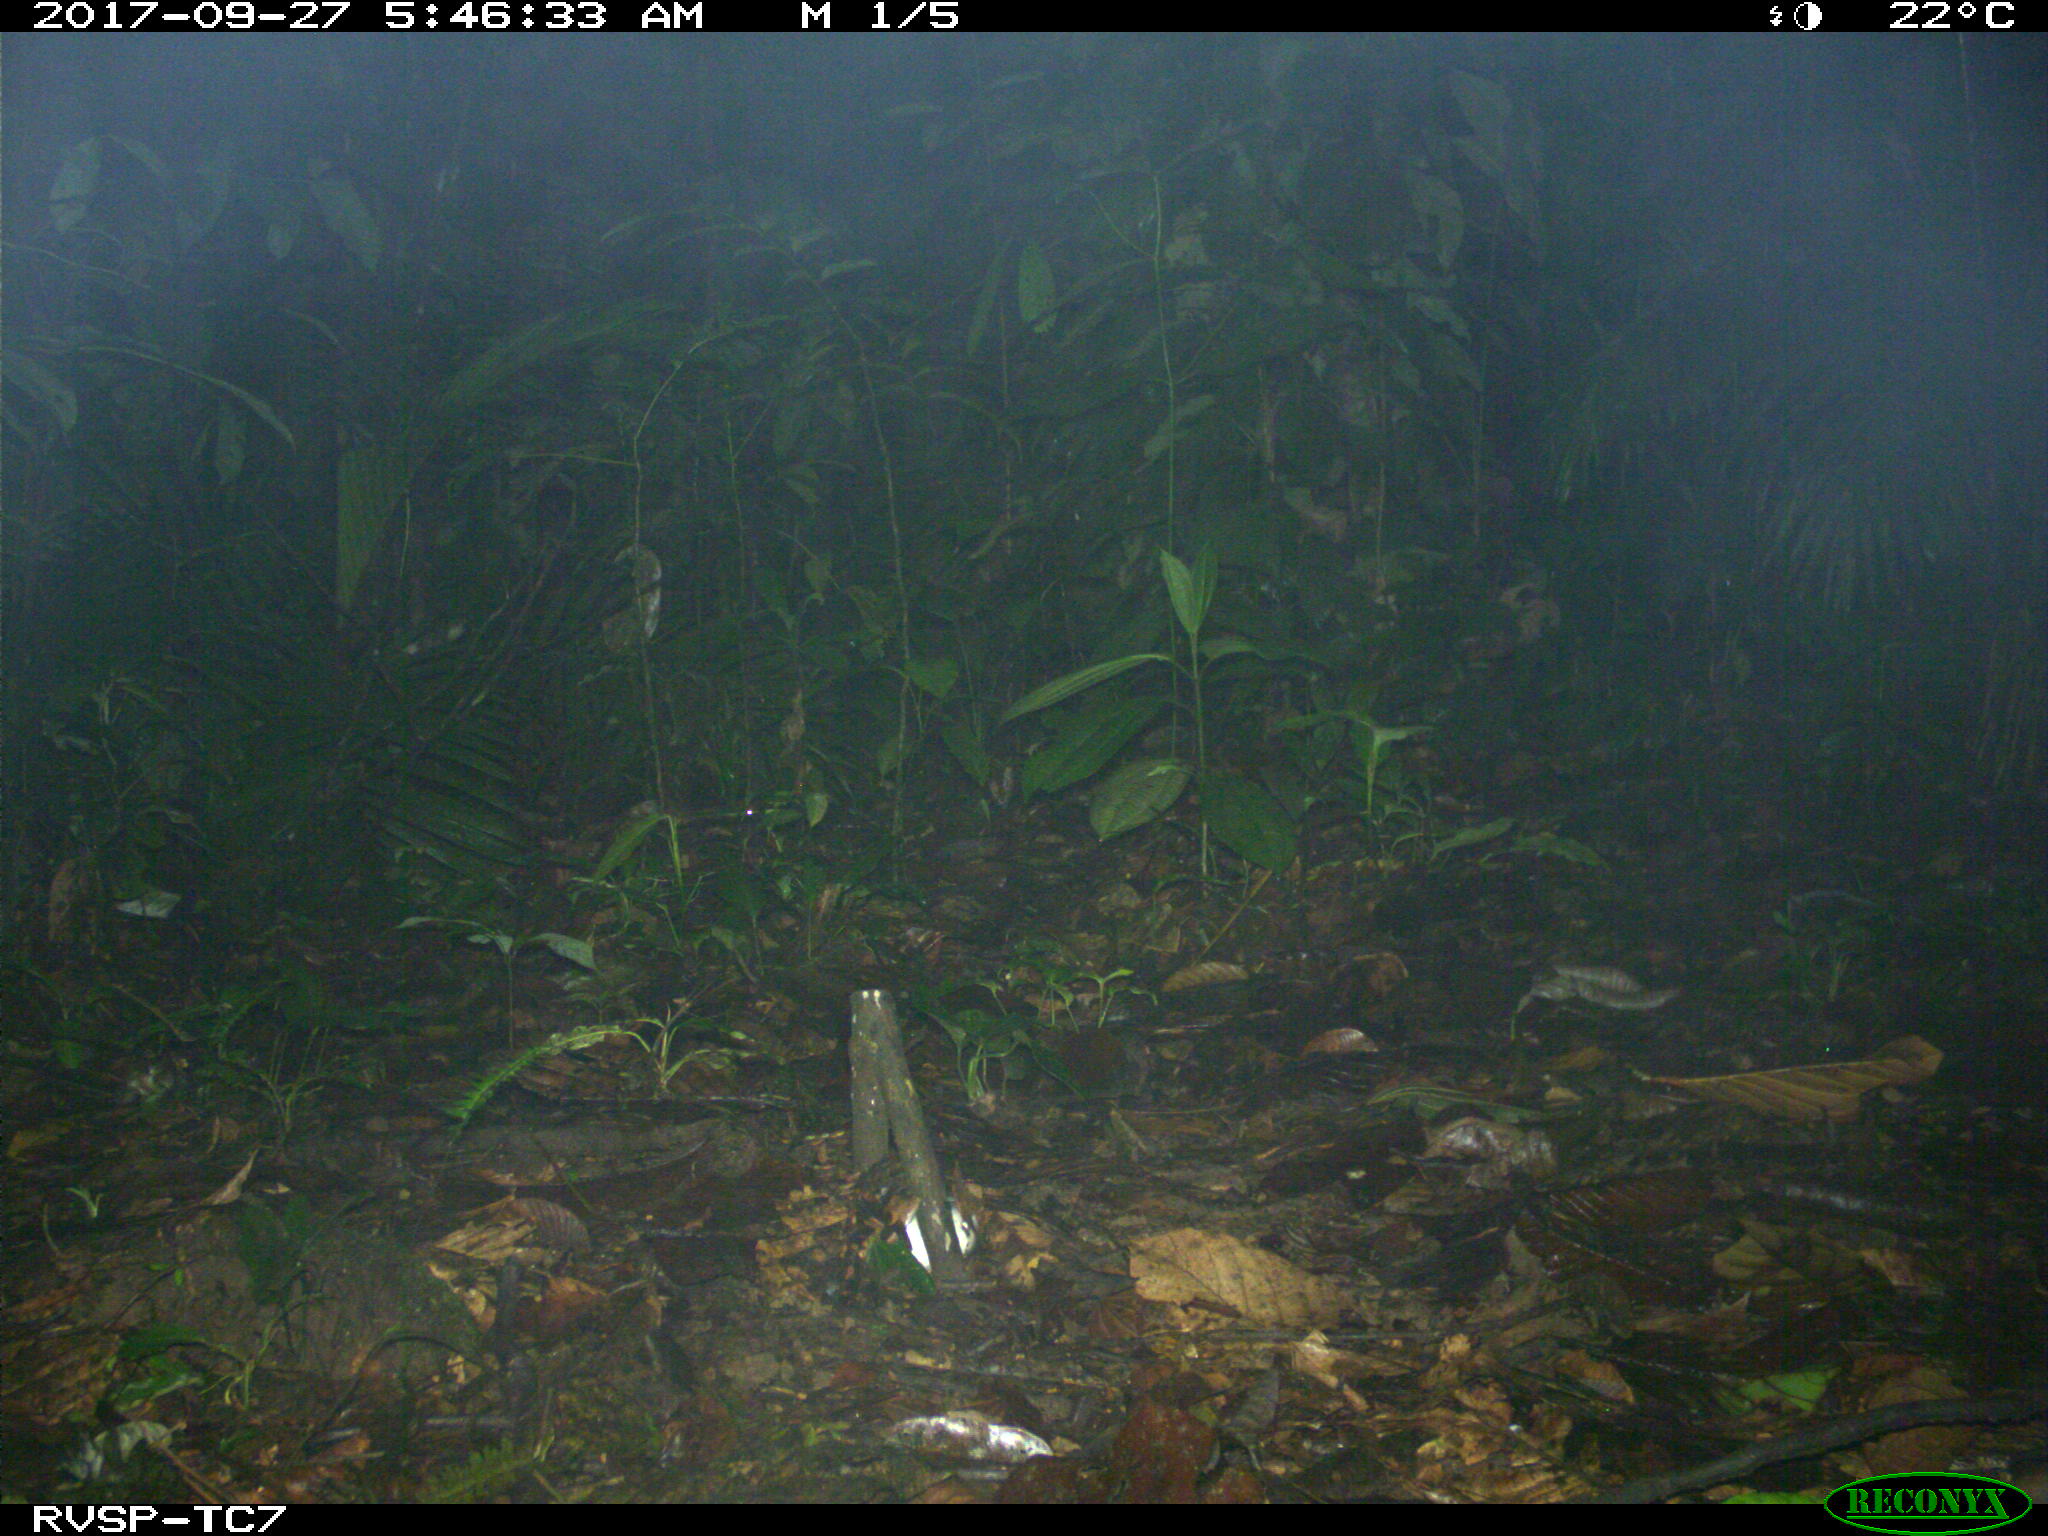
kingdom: Animalia
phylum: Chordata
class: Mammalia
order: Carnivora
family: Felidae
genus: Leopardus
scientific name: Leopardus pardalis
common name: Ocelot
